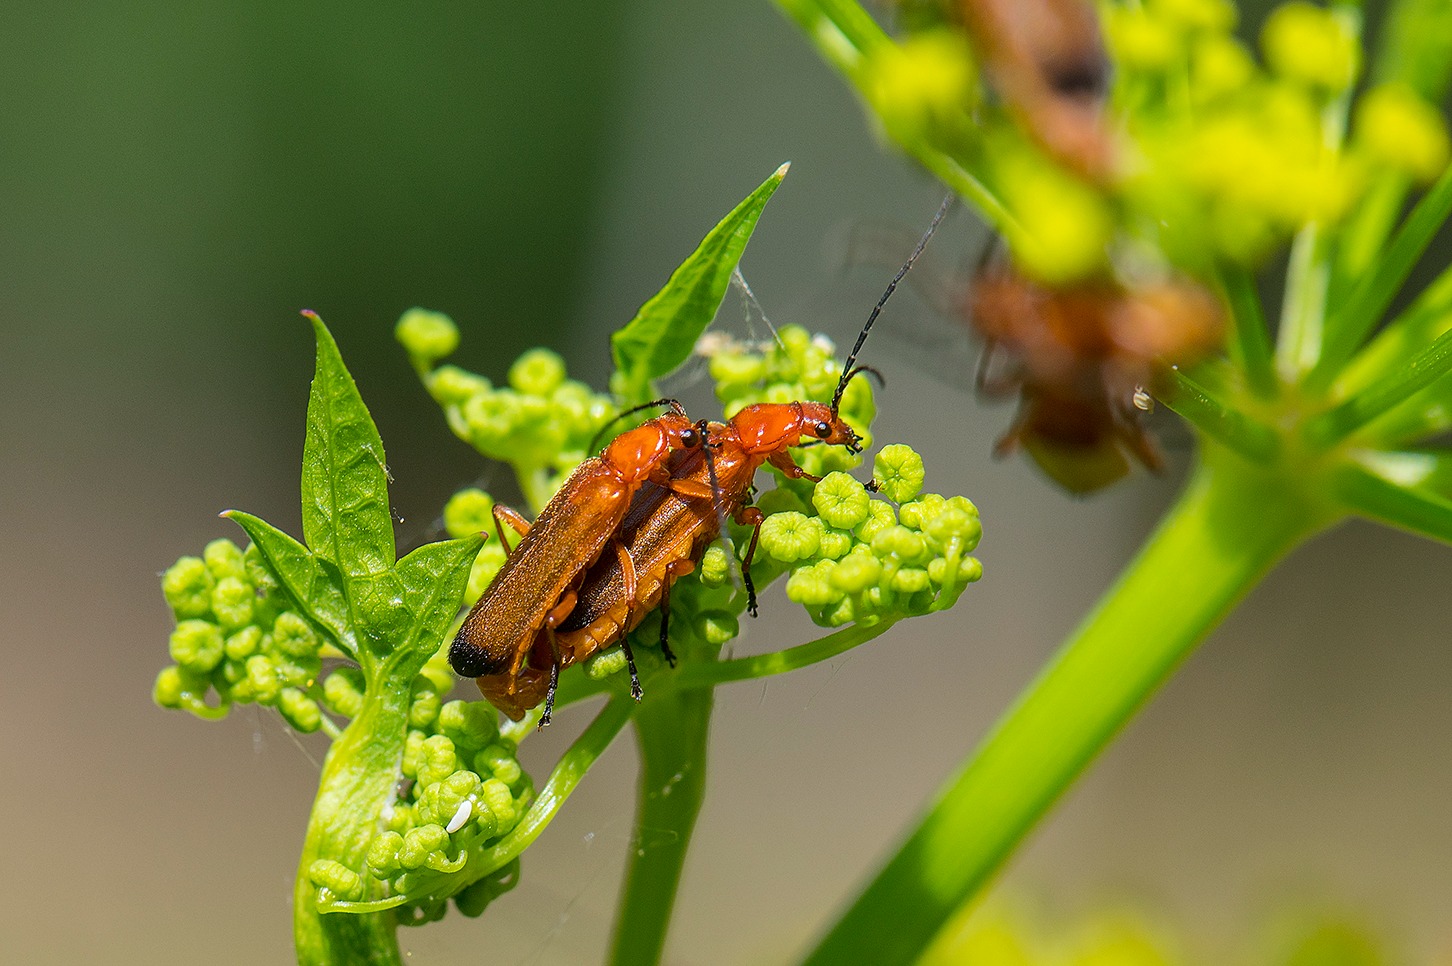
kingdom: Animalia
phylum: Arthropoda
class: Insecta
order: Coleoptera
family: Cantharidae
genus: Rhagonycha
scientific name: Rhagonycha fulva
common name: Præstebille
